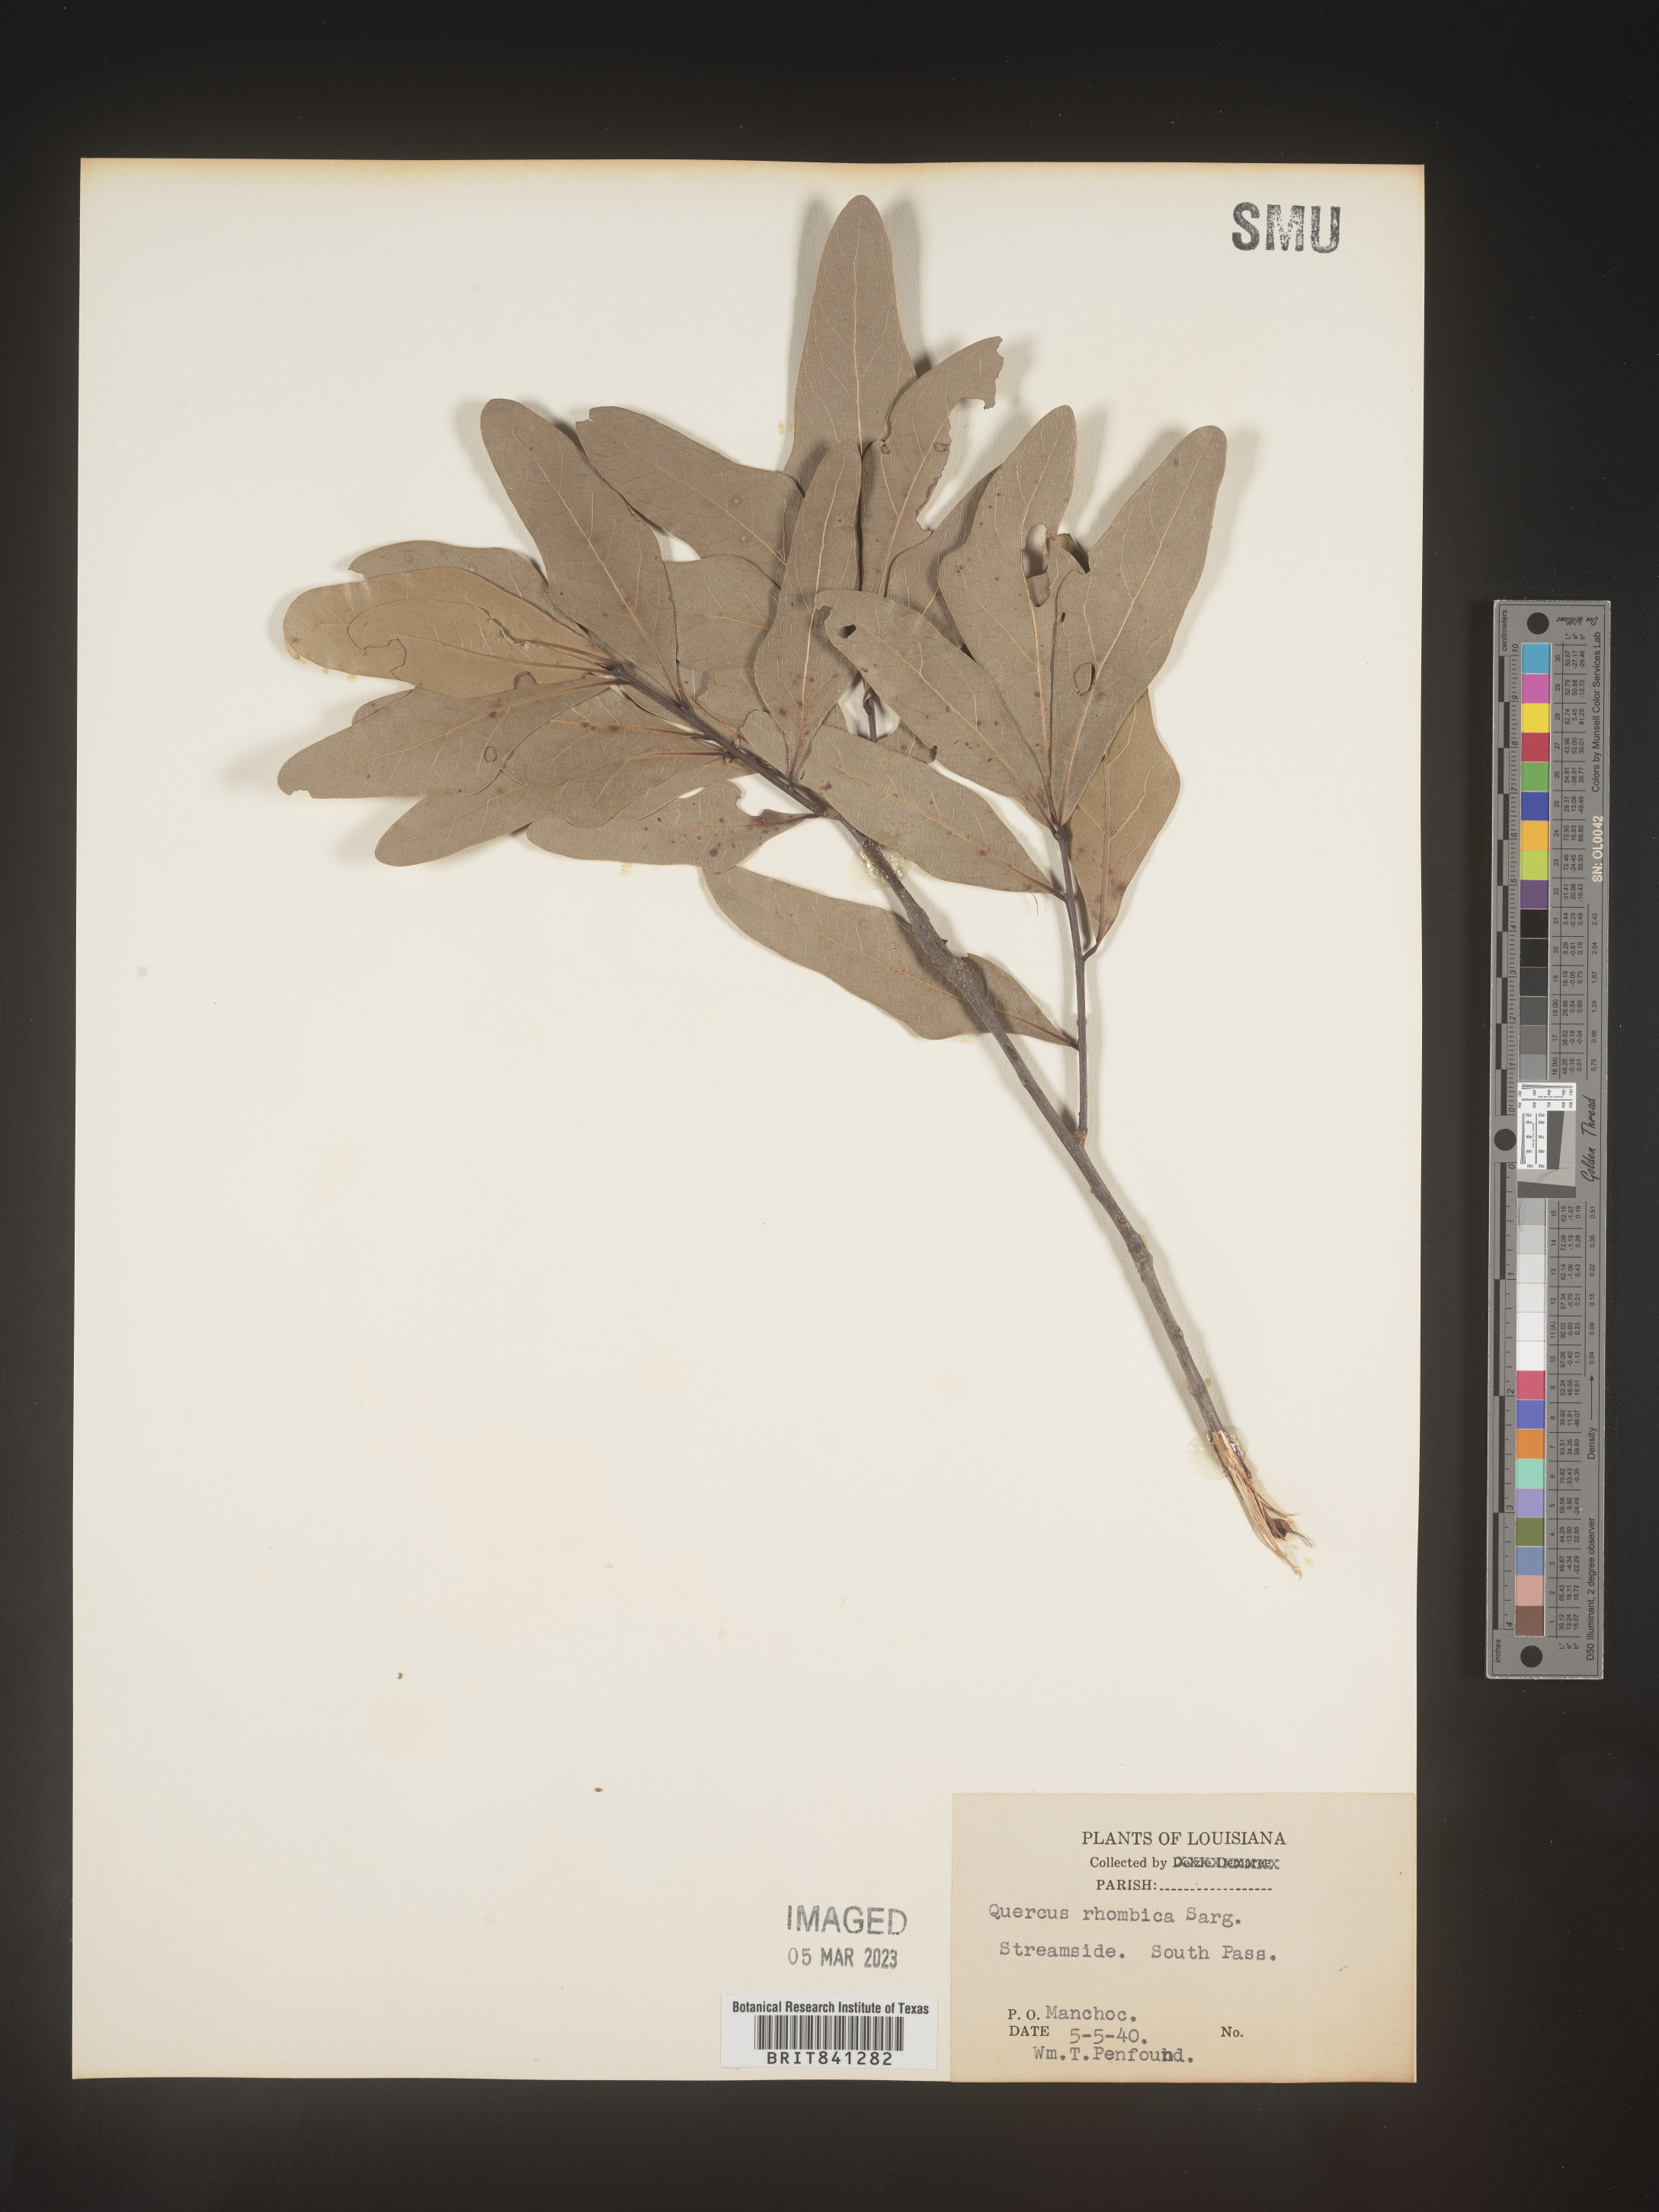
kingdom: Plantae
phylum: Tracheophyta
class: Magnoliopsida
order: Fagales
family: Fagaceae
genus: Quercus
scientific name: Quercus
